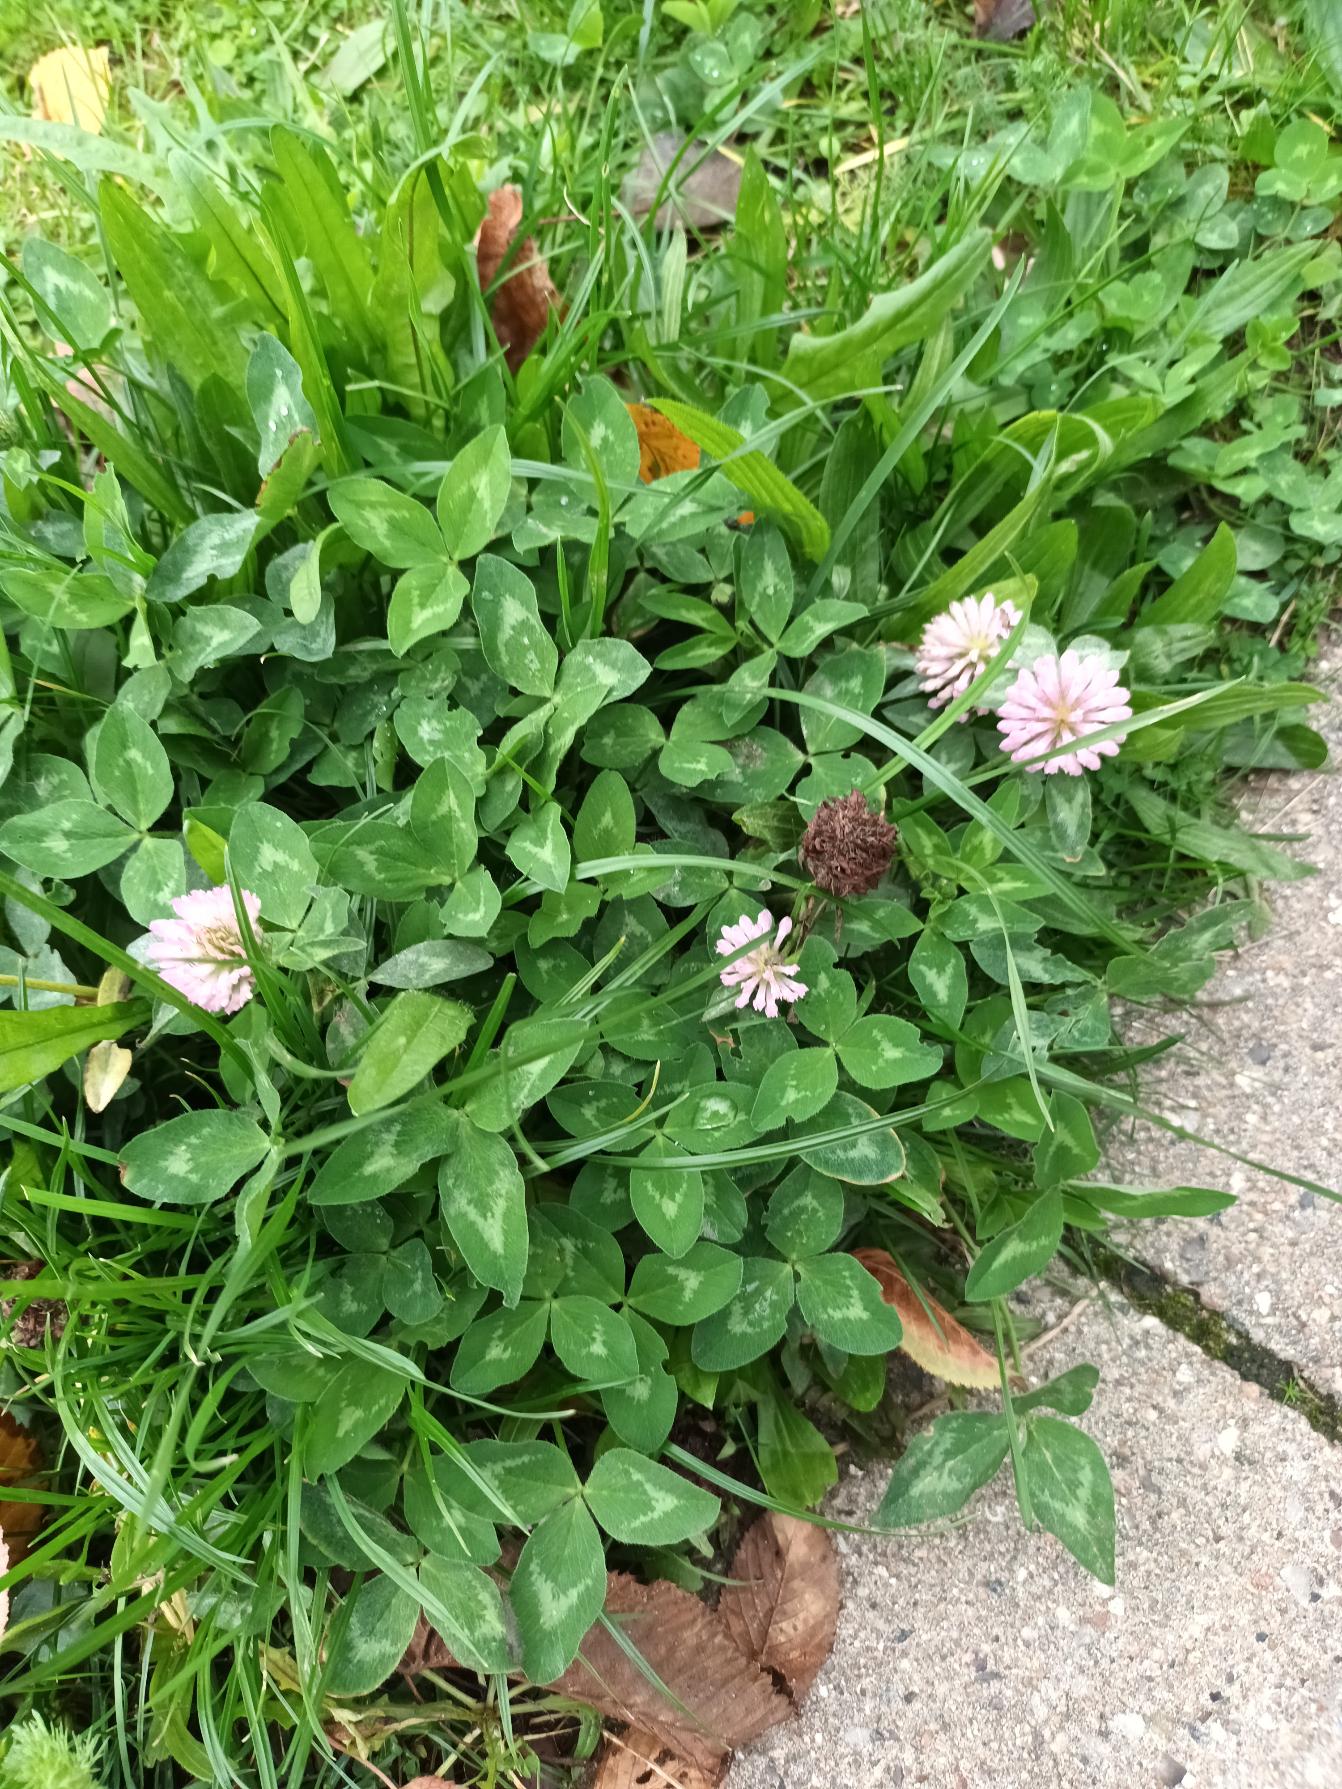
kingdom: Plantae
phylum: Tracheophyta
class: Magnoliopsida
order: Fabales
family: Fabaceae
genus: Trifolium
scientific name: Trifolium pratense
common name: Rød-kløver
